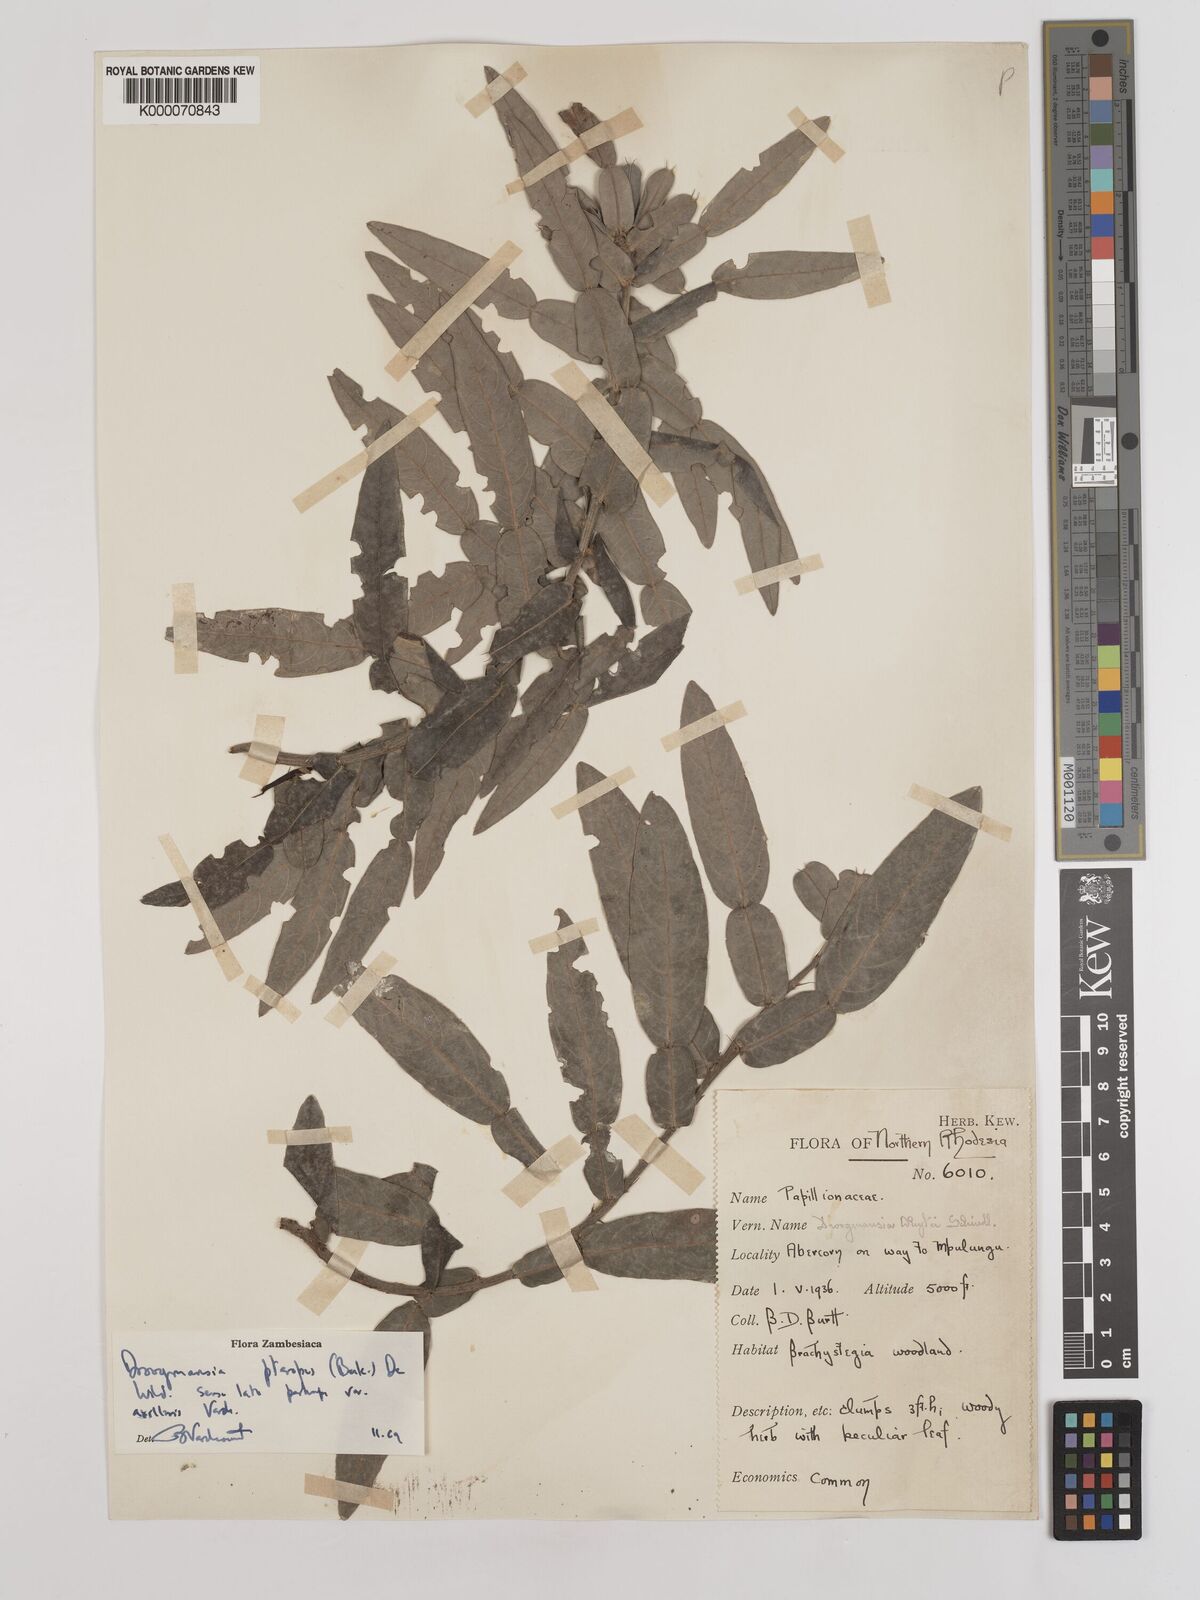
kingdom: Plantae
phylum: Tracheophyta
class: Magnoliopsida
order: Fabales
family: Fabaceae
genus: Droogmansia
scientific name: Droogmansia pteropus
